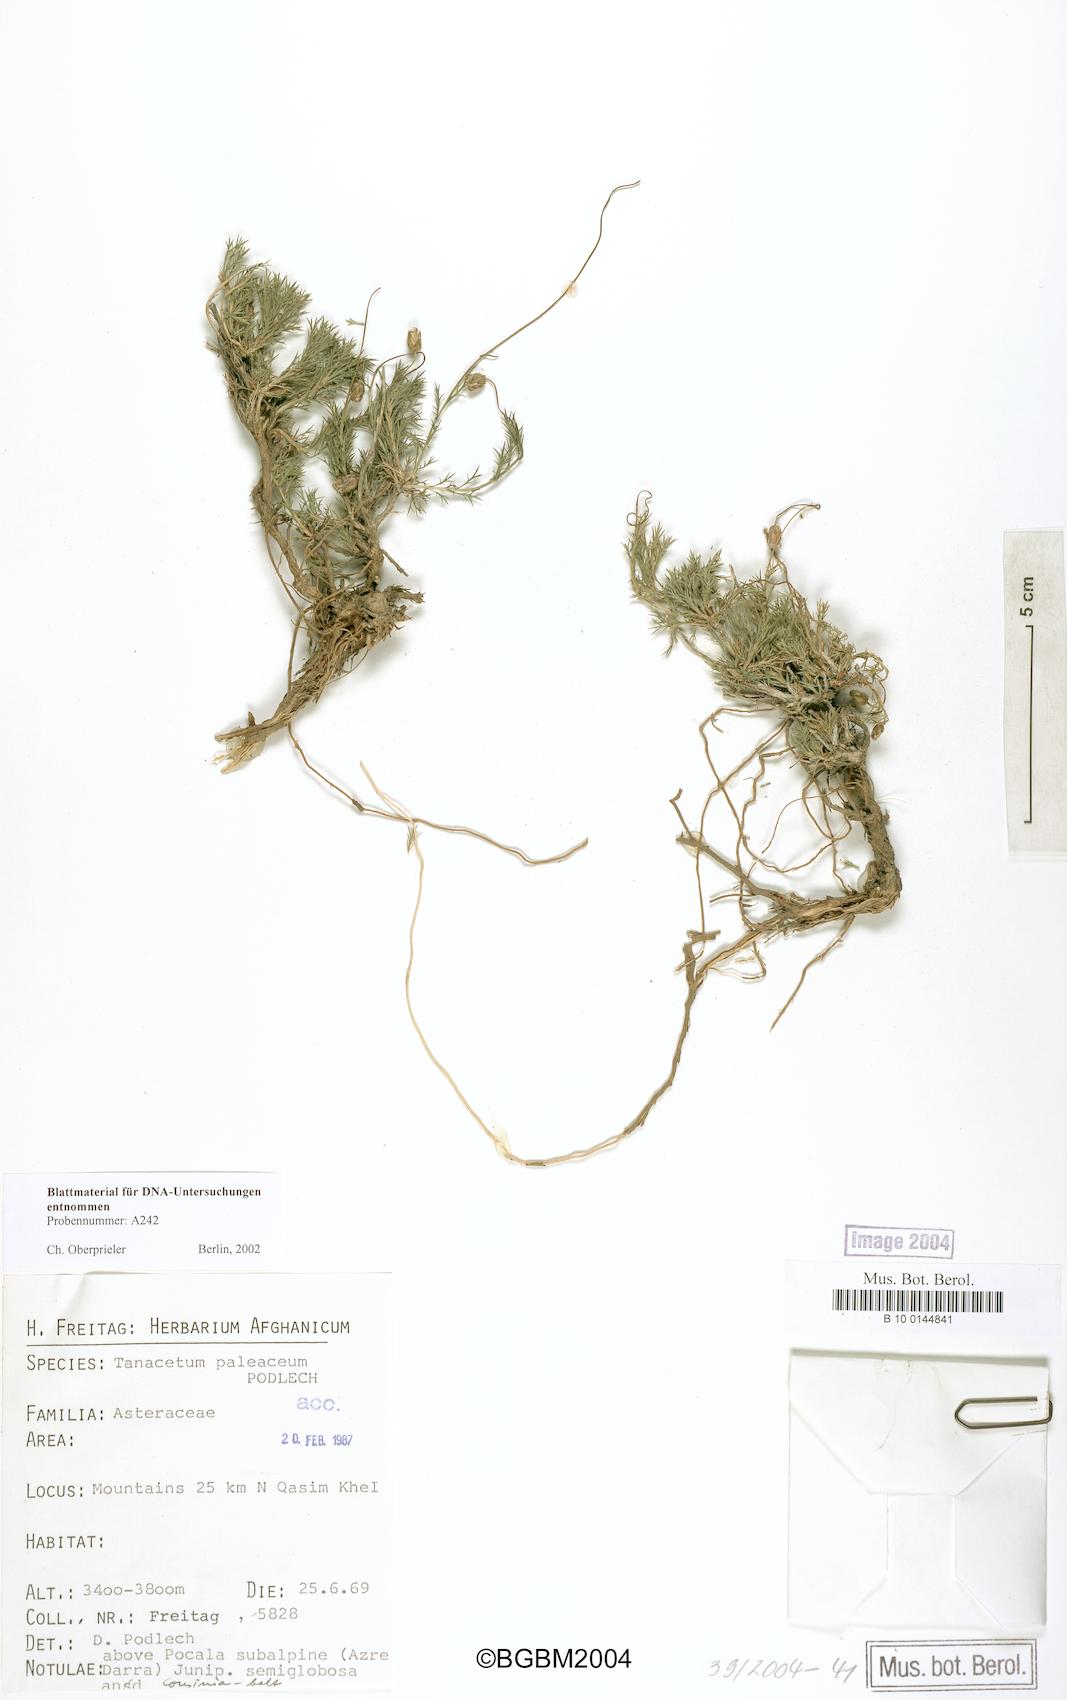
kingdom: Plantae
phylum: Tracheophyta
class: Magnoliopsida
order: Asterales
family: Asteraceae
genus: Xylanthemum
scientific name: Xylanthemum paleaceum
